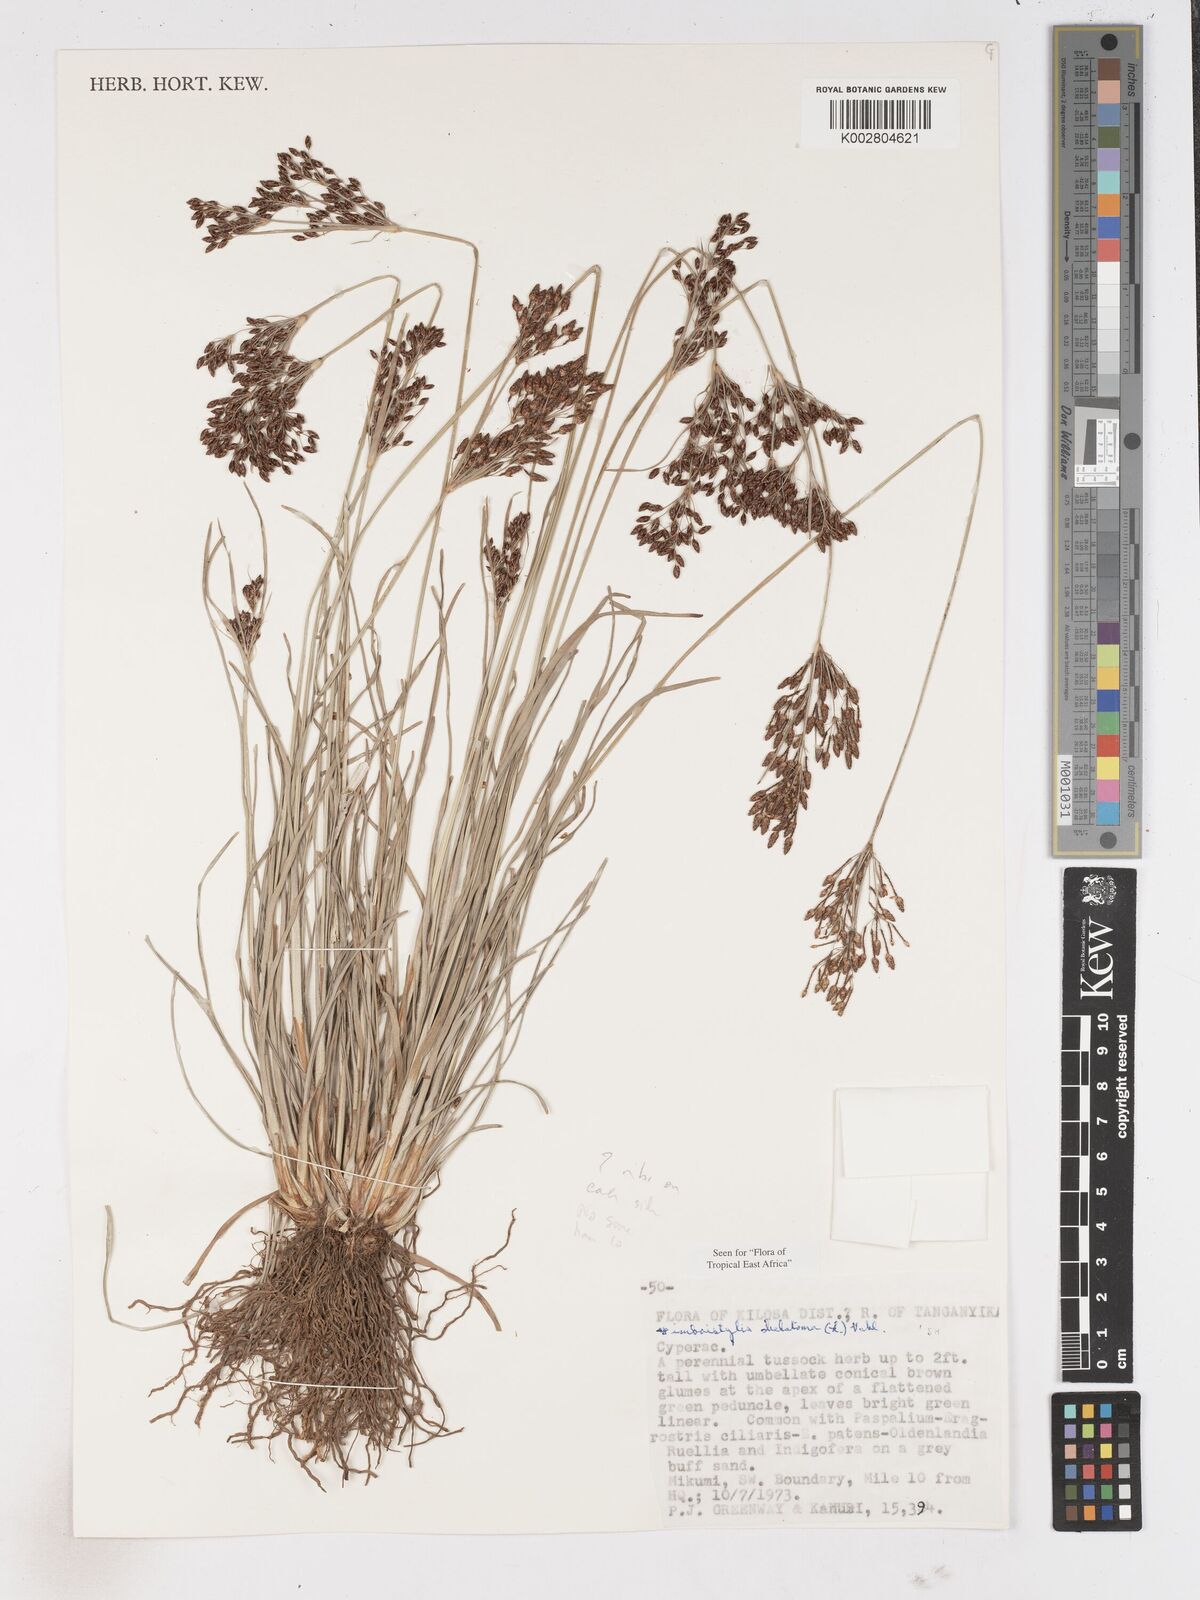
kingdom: Plantae
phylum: Tracheophyta
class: Liliopsida
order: Poales
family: Cyperaceae
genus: Fimbristylis
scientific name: Fimbristylis dichotoma
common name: Forked fimbry
